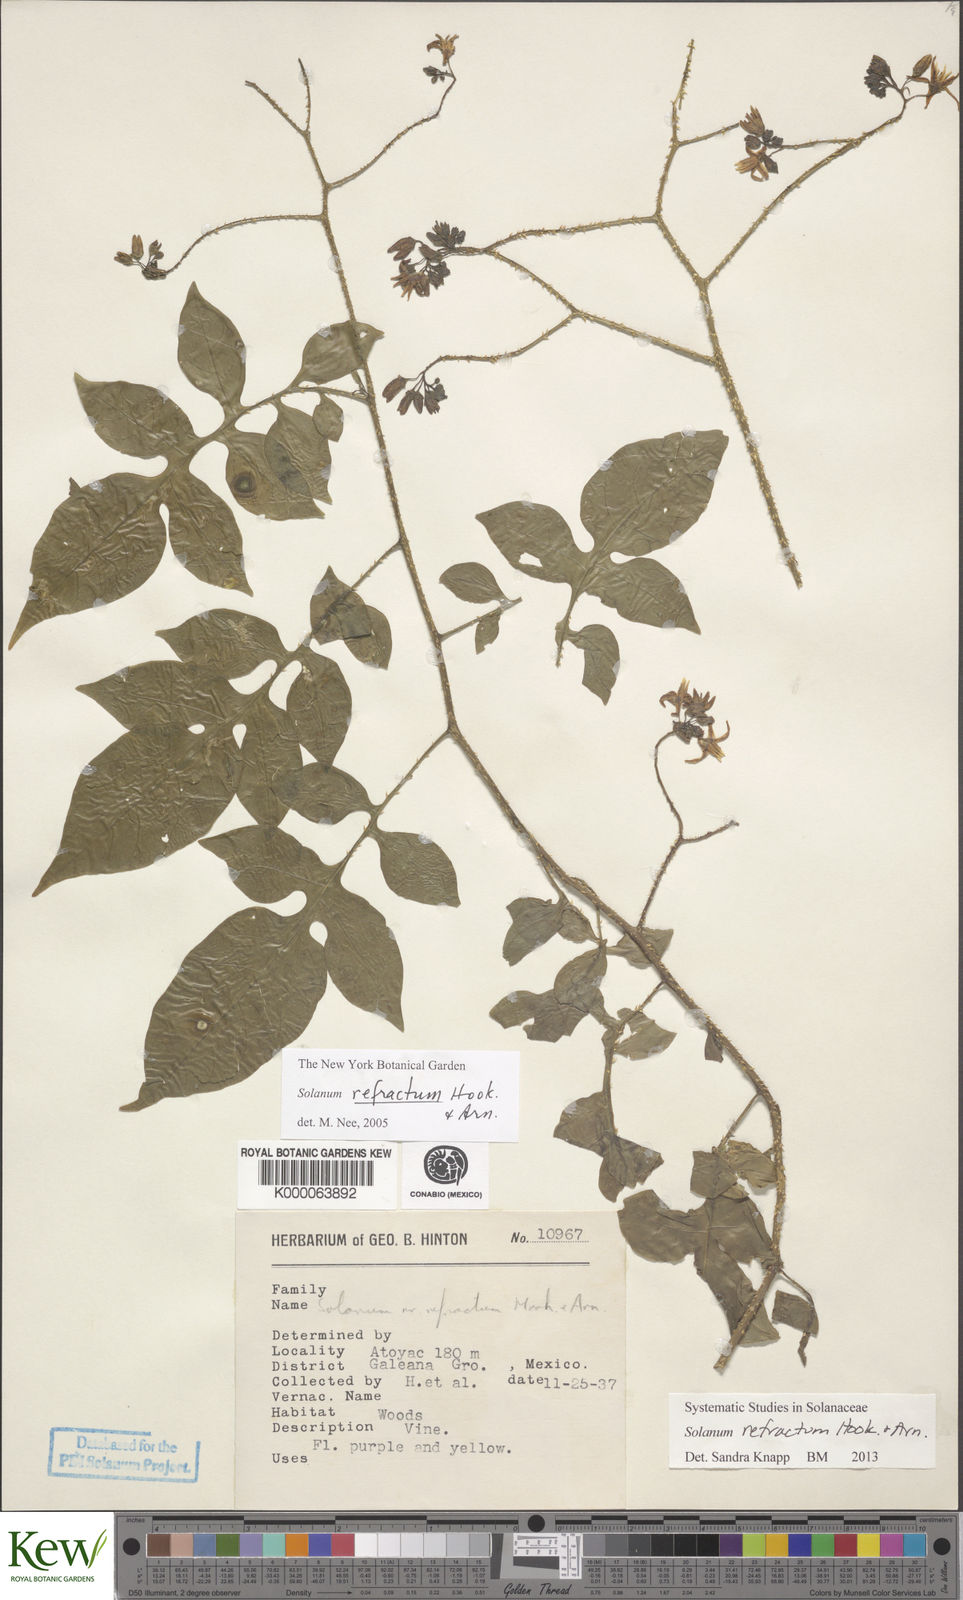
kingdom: Plantae
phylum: Tracheophyta
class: Magnoliopsida
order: Solanales
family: Solanaceae
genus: Solanum
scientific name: Solanum refractum
